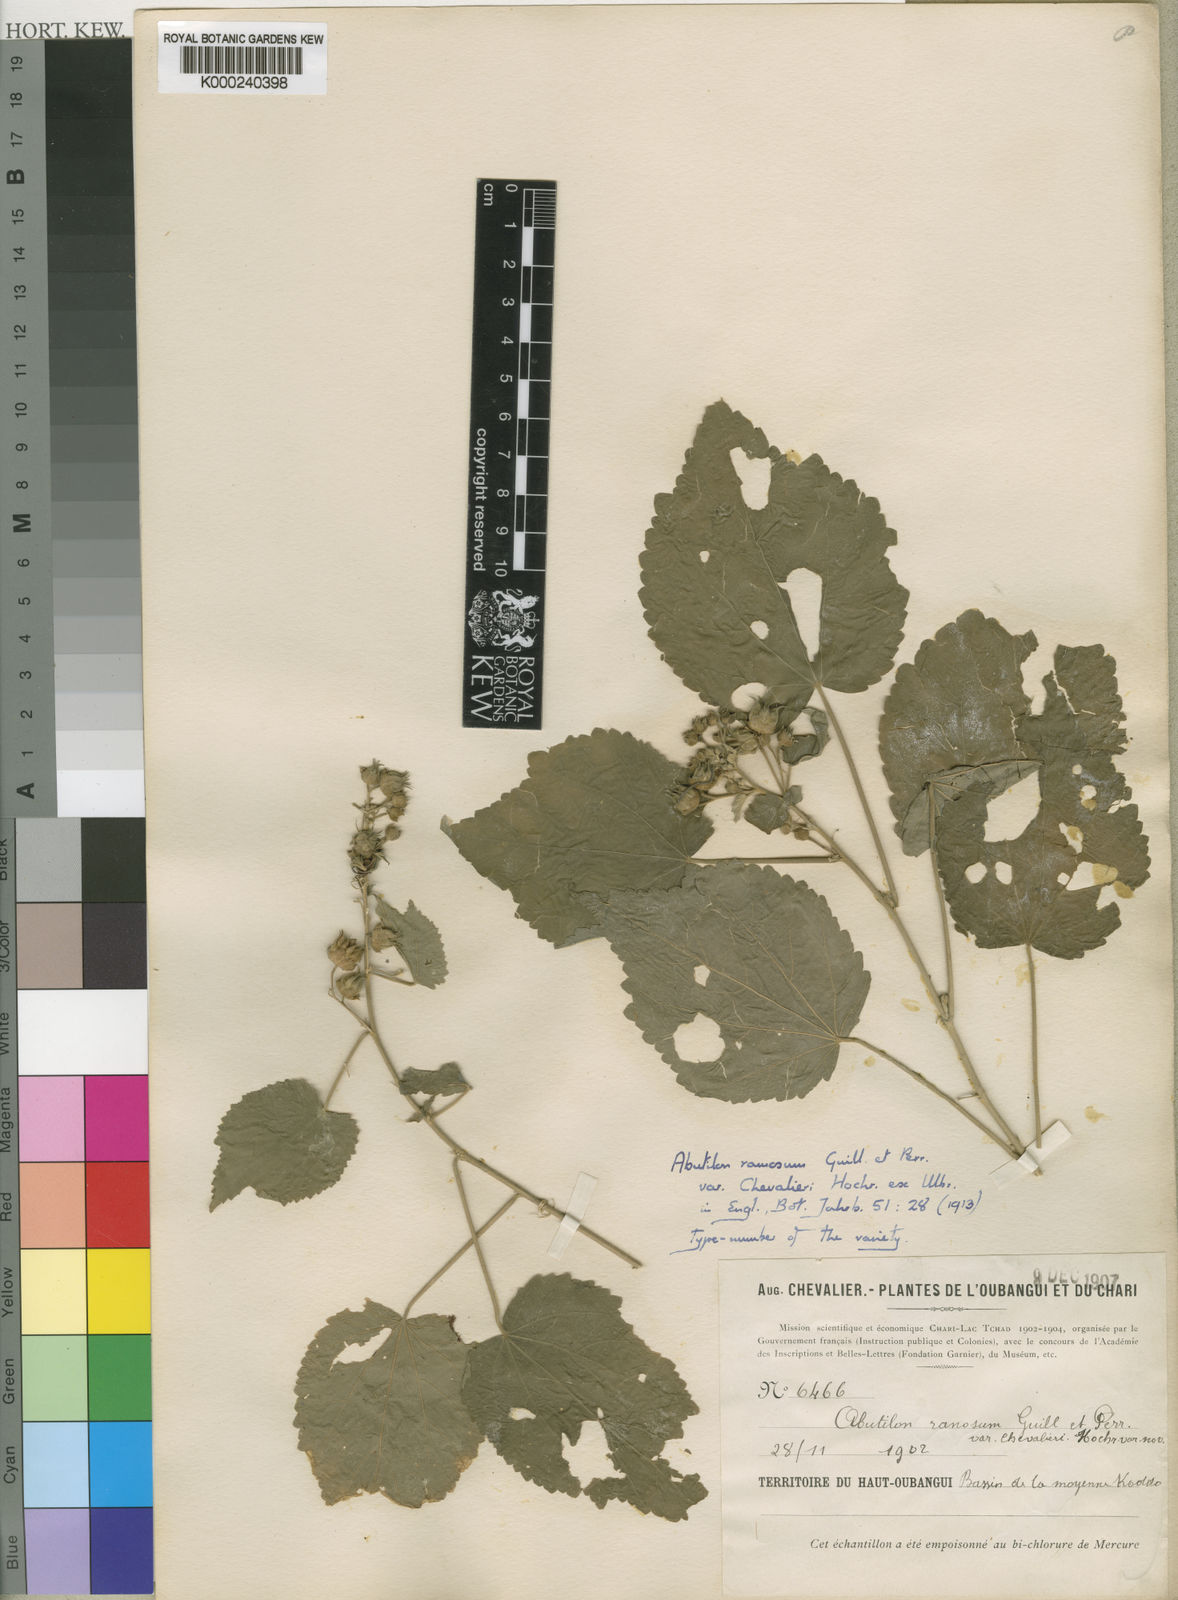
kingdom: Plantae
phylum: Tracheophyta
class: Magnoliopsida
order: Malvales
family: Malvaceae
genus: Abutilon
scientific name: Abutilon ramosum
